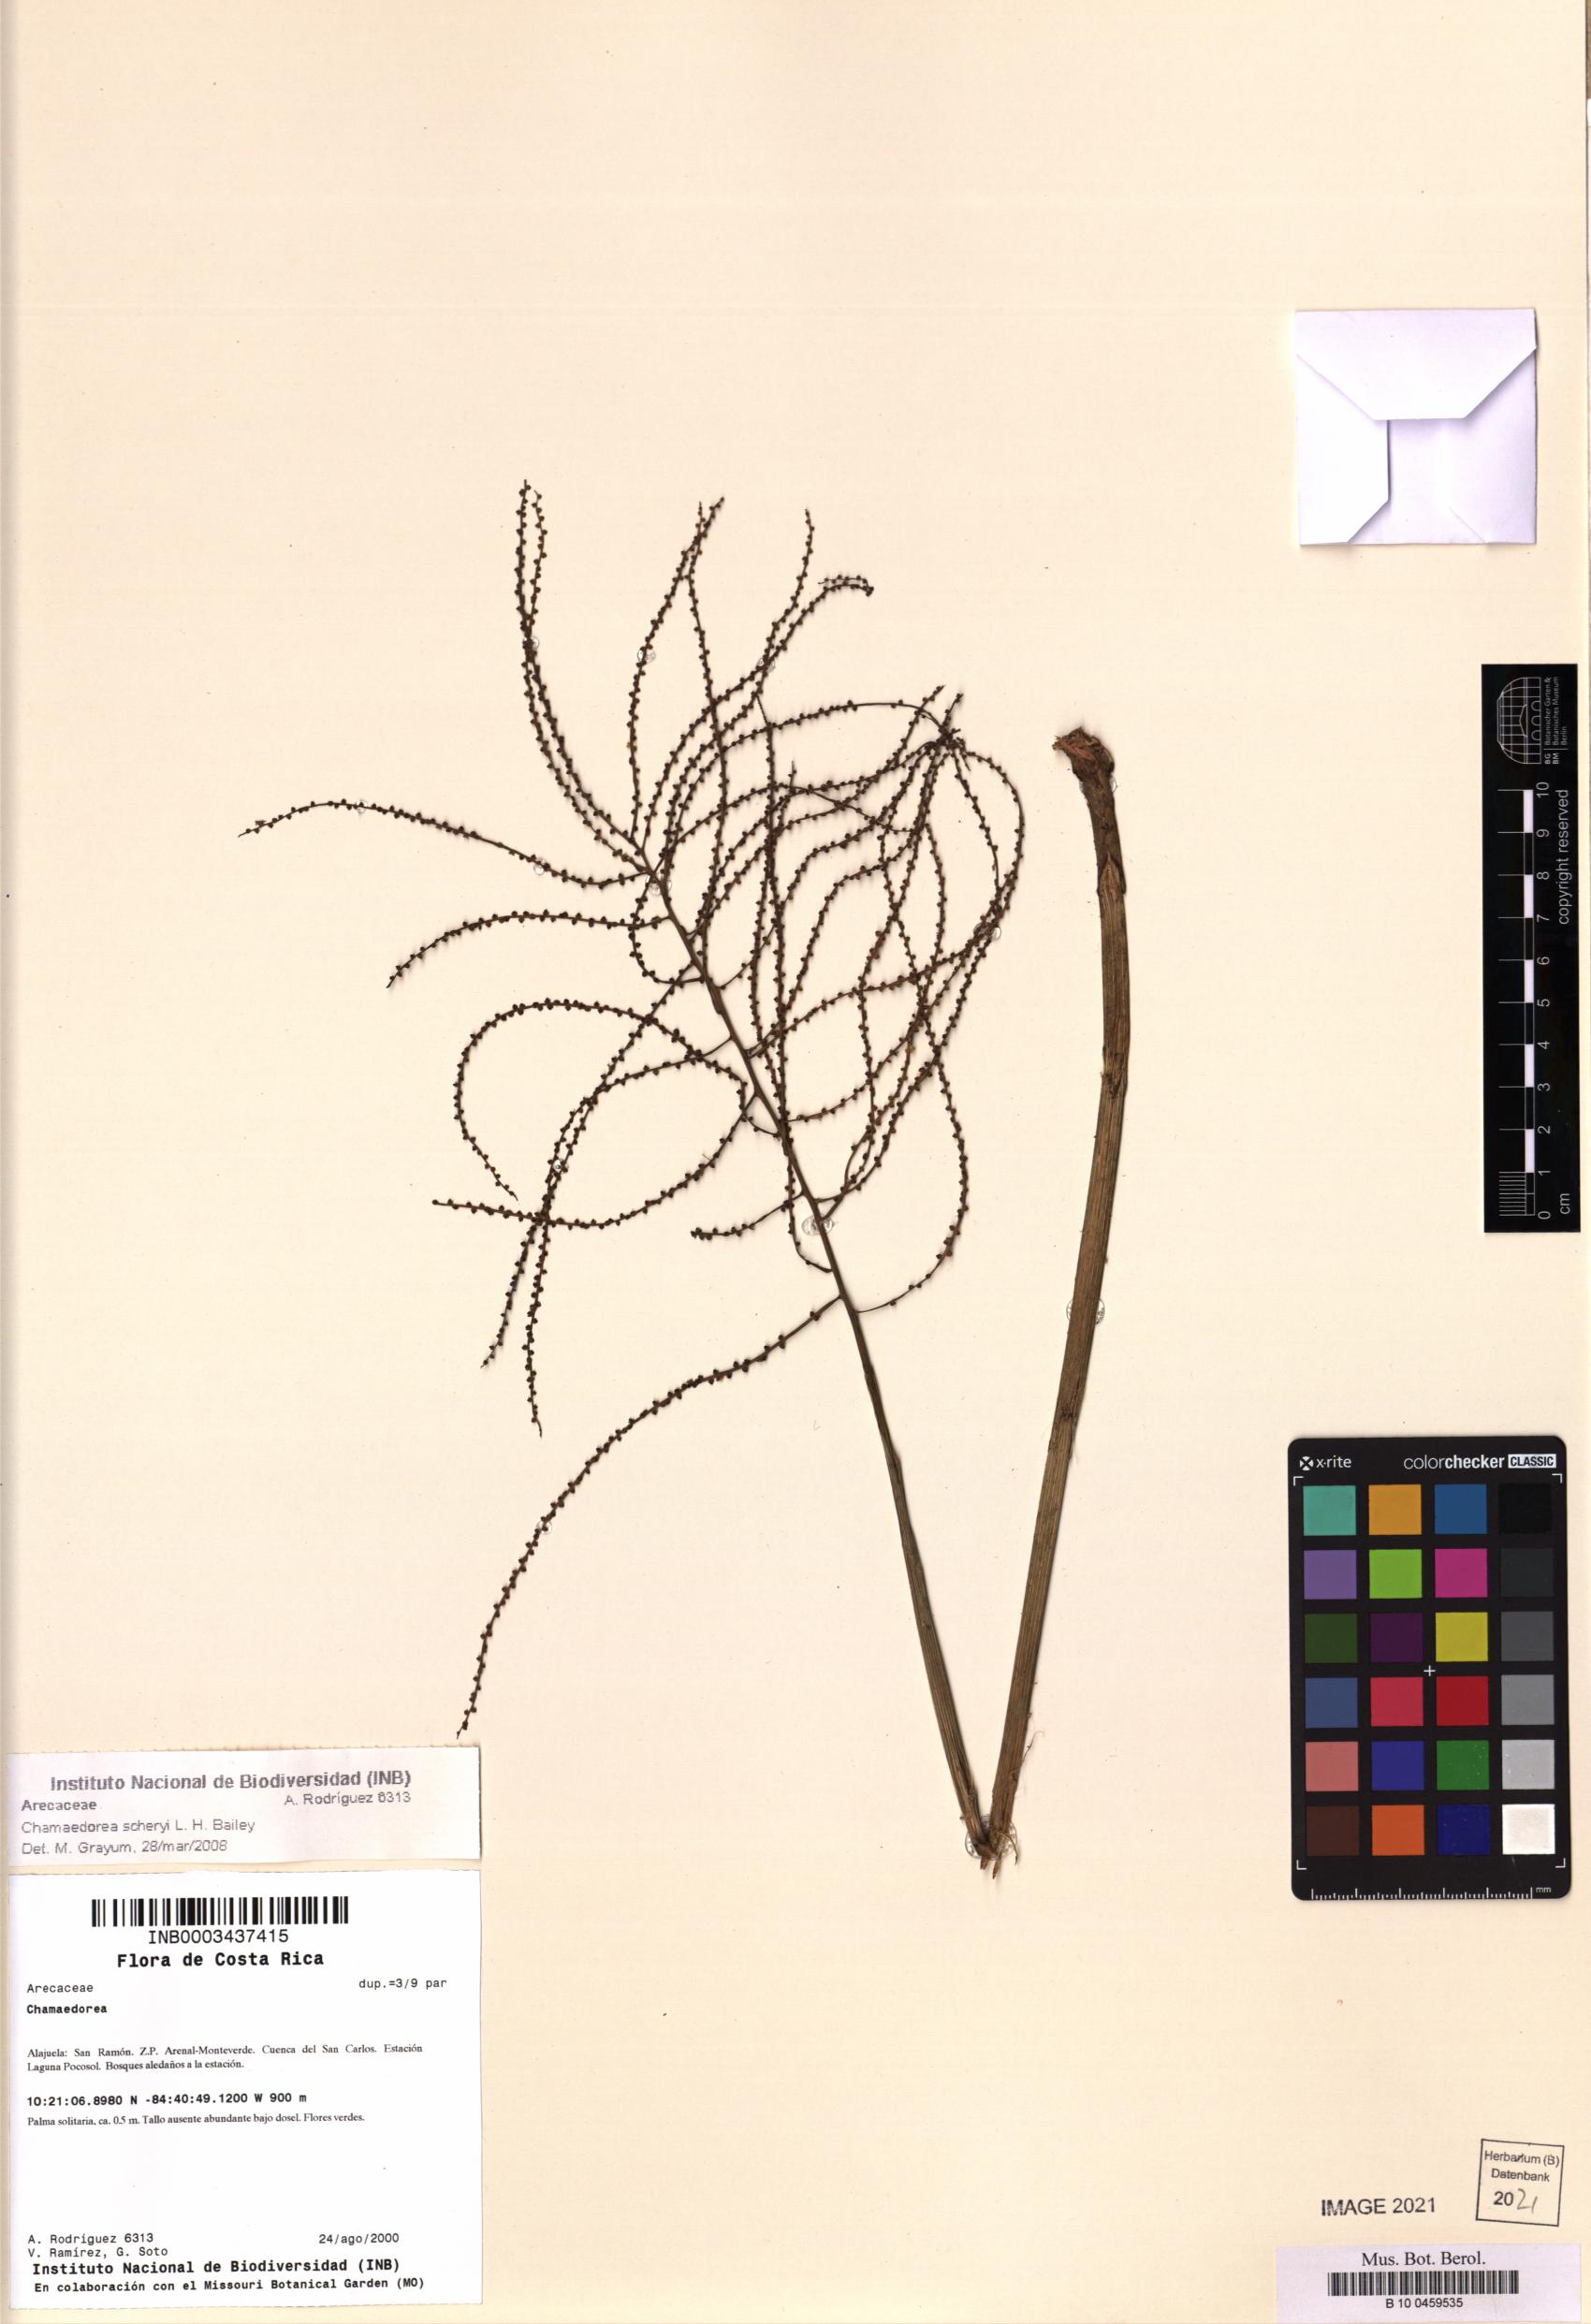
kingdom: Plantae
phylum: Tracheophyta
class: Liliopsida
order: Arecales
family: Arecaceae
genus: Chamaedorea
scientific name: Chamaedorea scheryi
